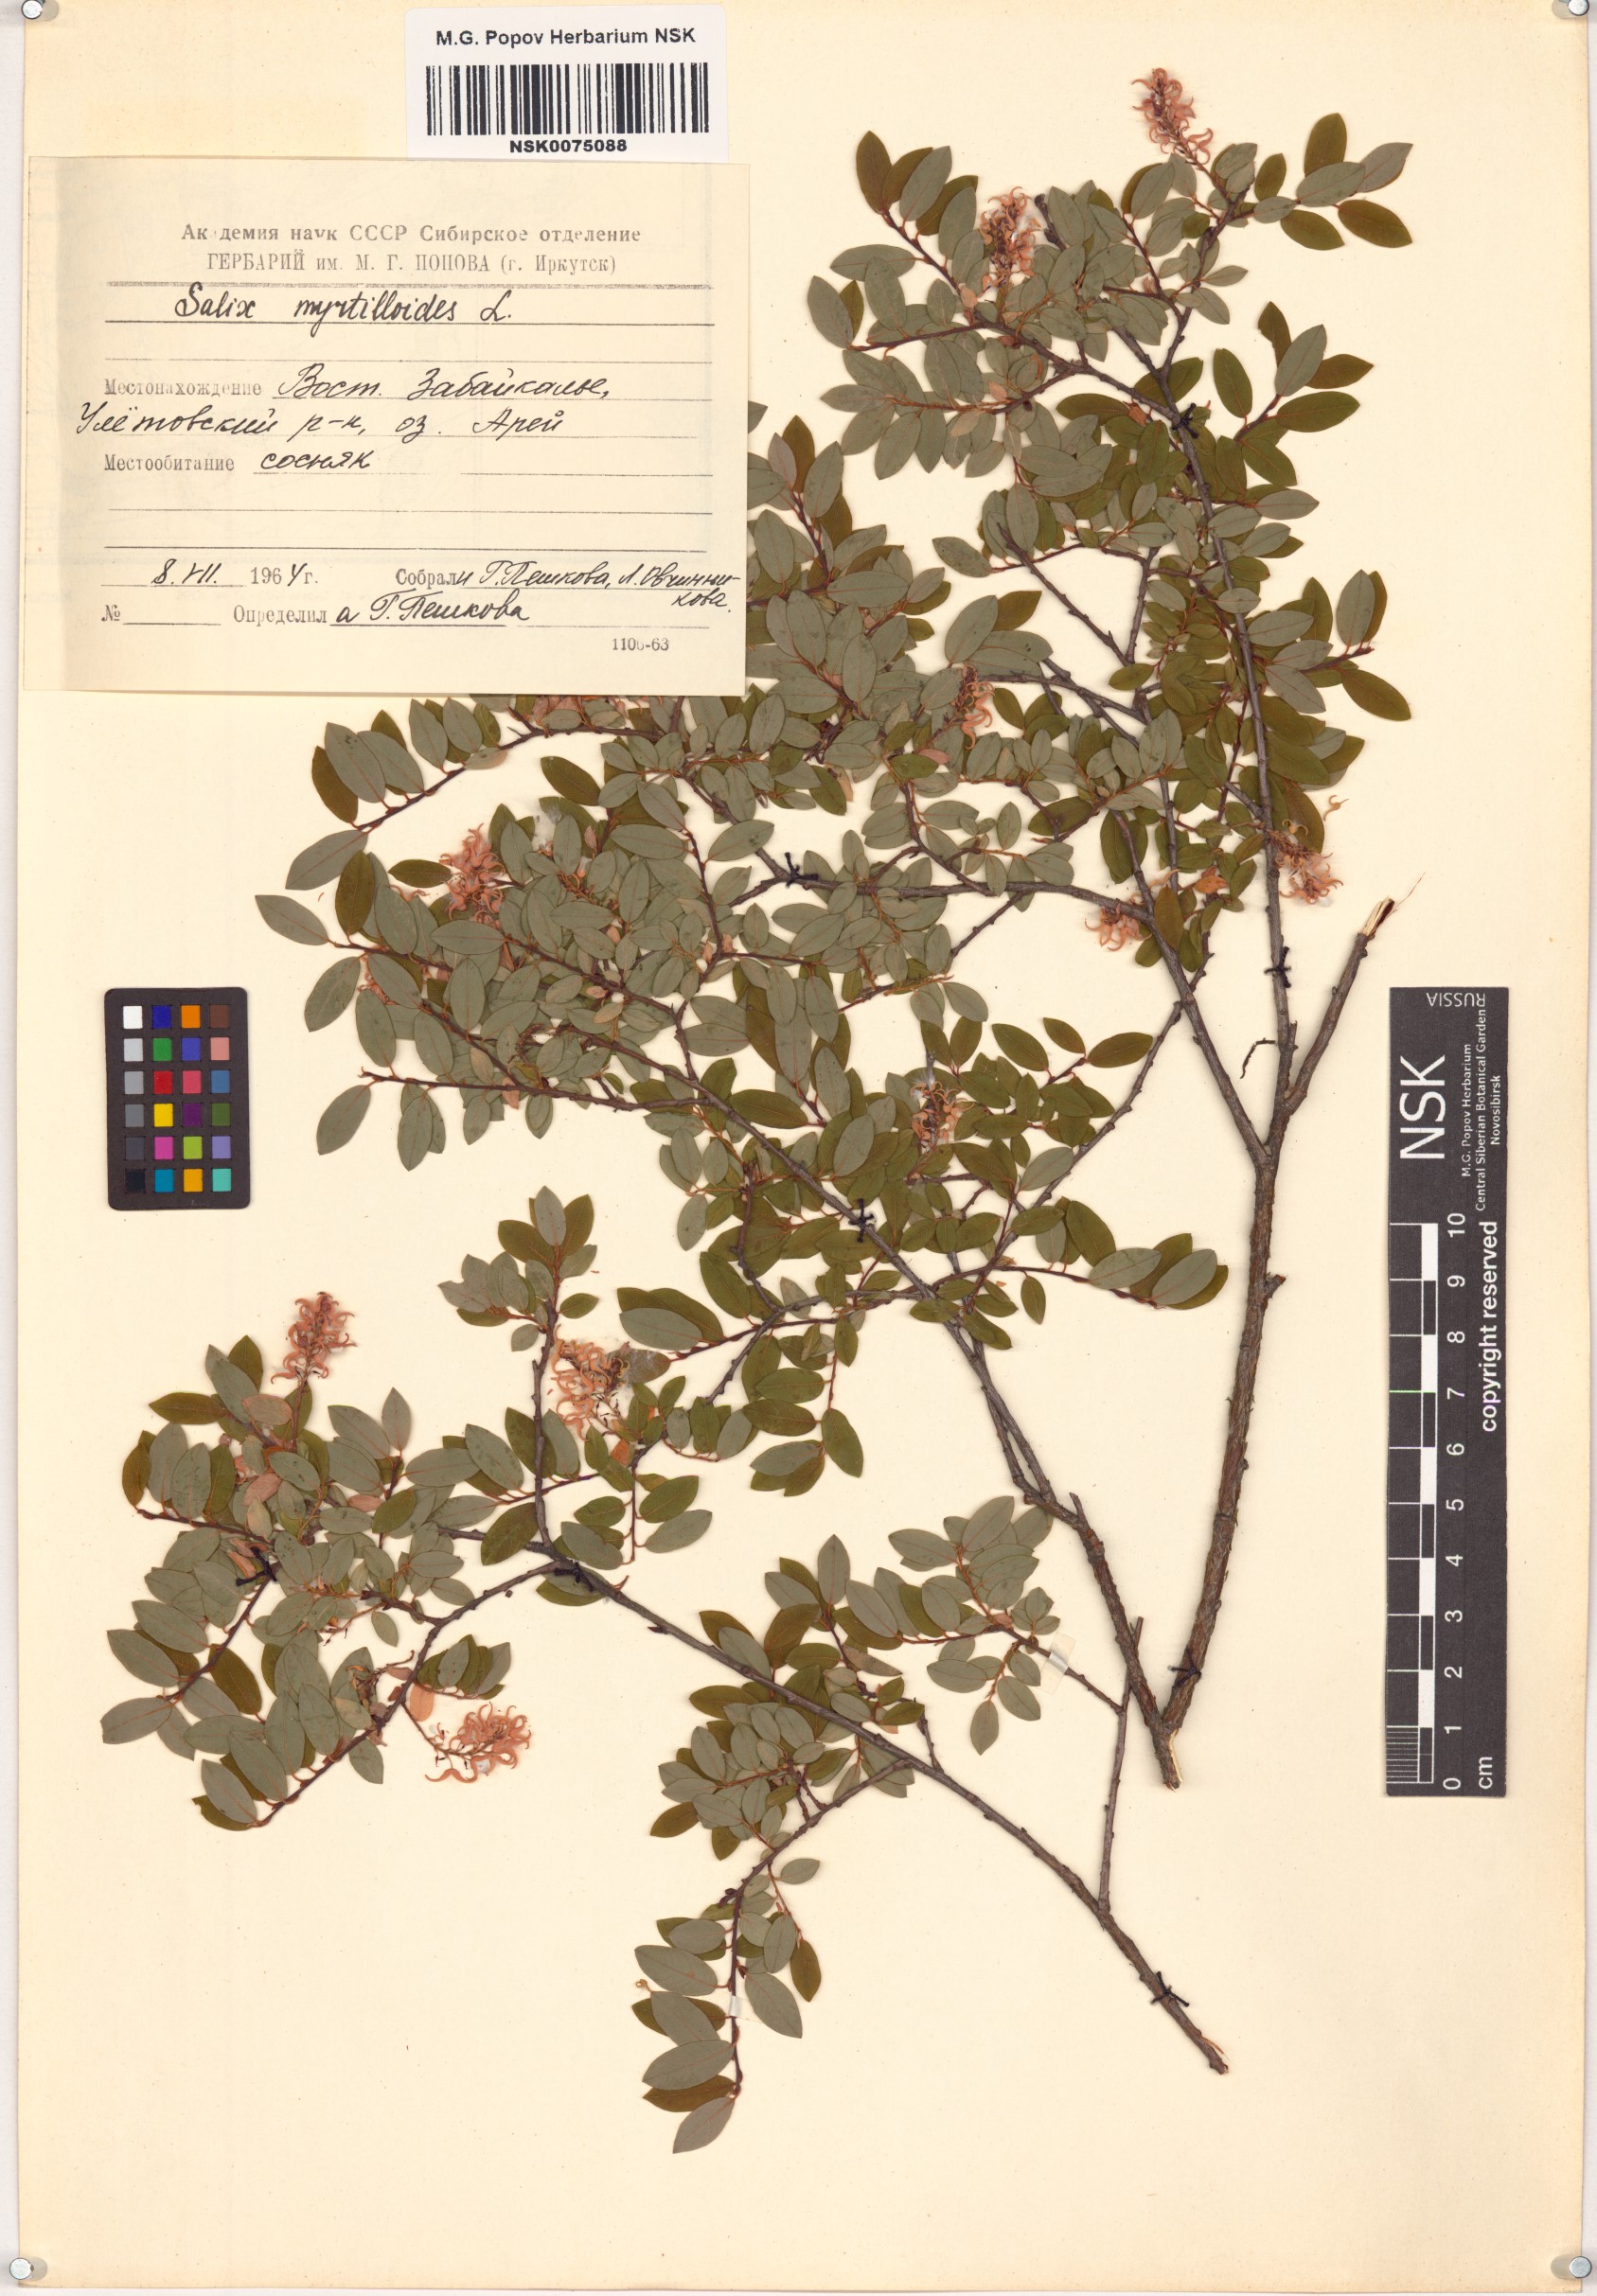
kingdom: Plantae
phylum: Tracheophyta
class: Magnoliopsida
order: Malpighiales
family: Salicaceae
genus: Salix
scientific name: Salix myrtilloides
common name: Myrtle-leaved willow
